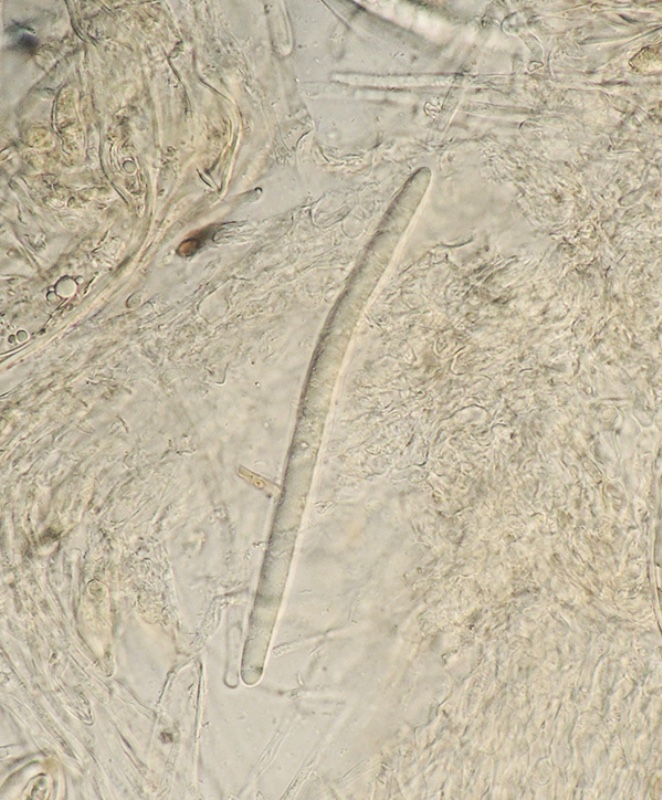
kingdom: Fungi
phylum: Ascomycota
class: Leotiomycetes
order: Helotiales
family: Hyaloscyphaceae
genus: Hyaloscypha
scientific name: Hyaloscypha hepaticicola
